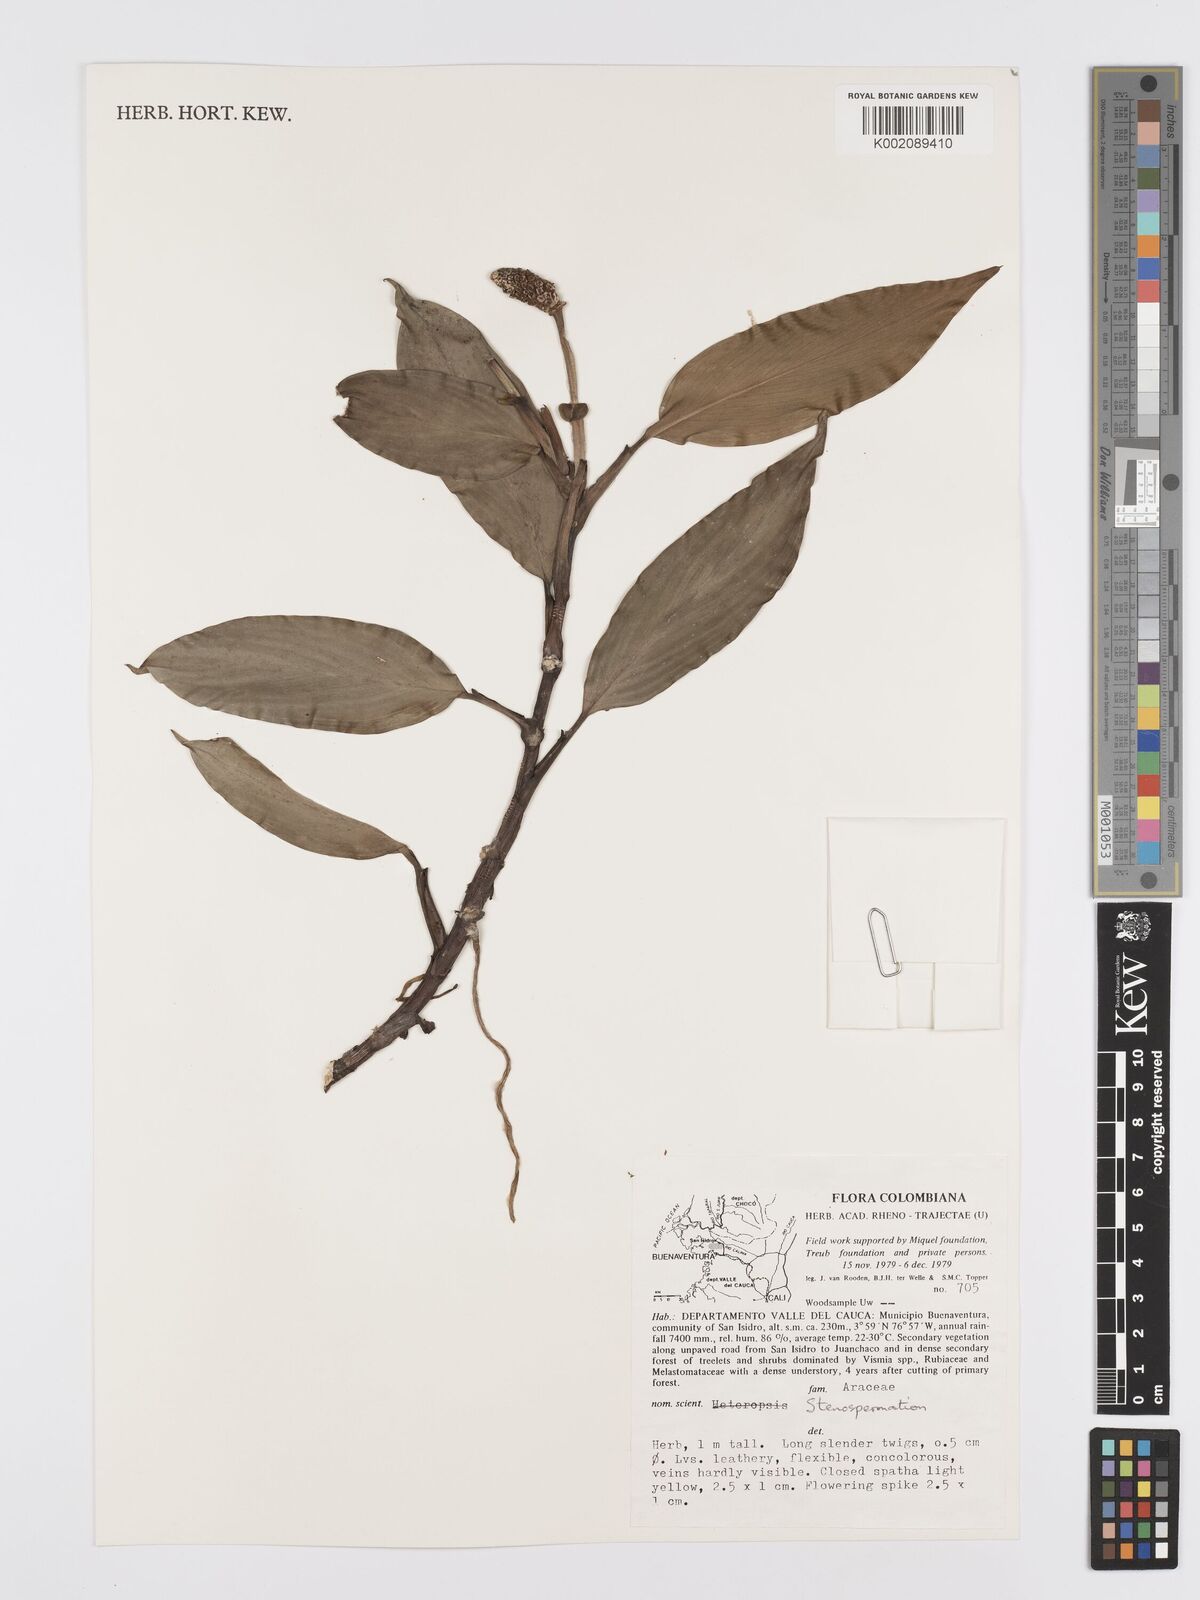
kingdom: Plantae
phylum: Tracheophyta
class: Liliopsida
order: Alismatales
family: Araceae
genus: Stenospermation
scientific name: Stenospermation andreanum
